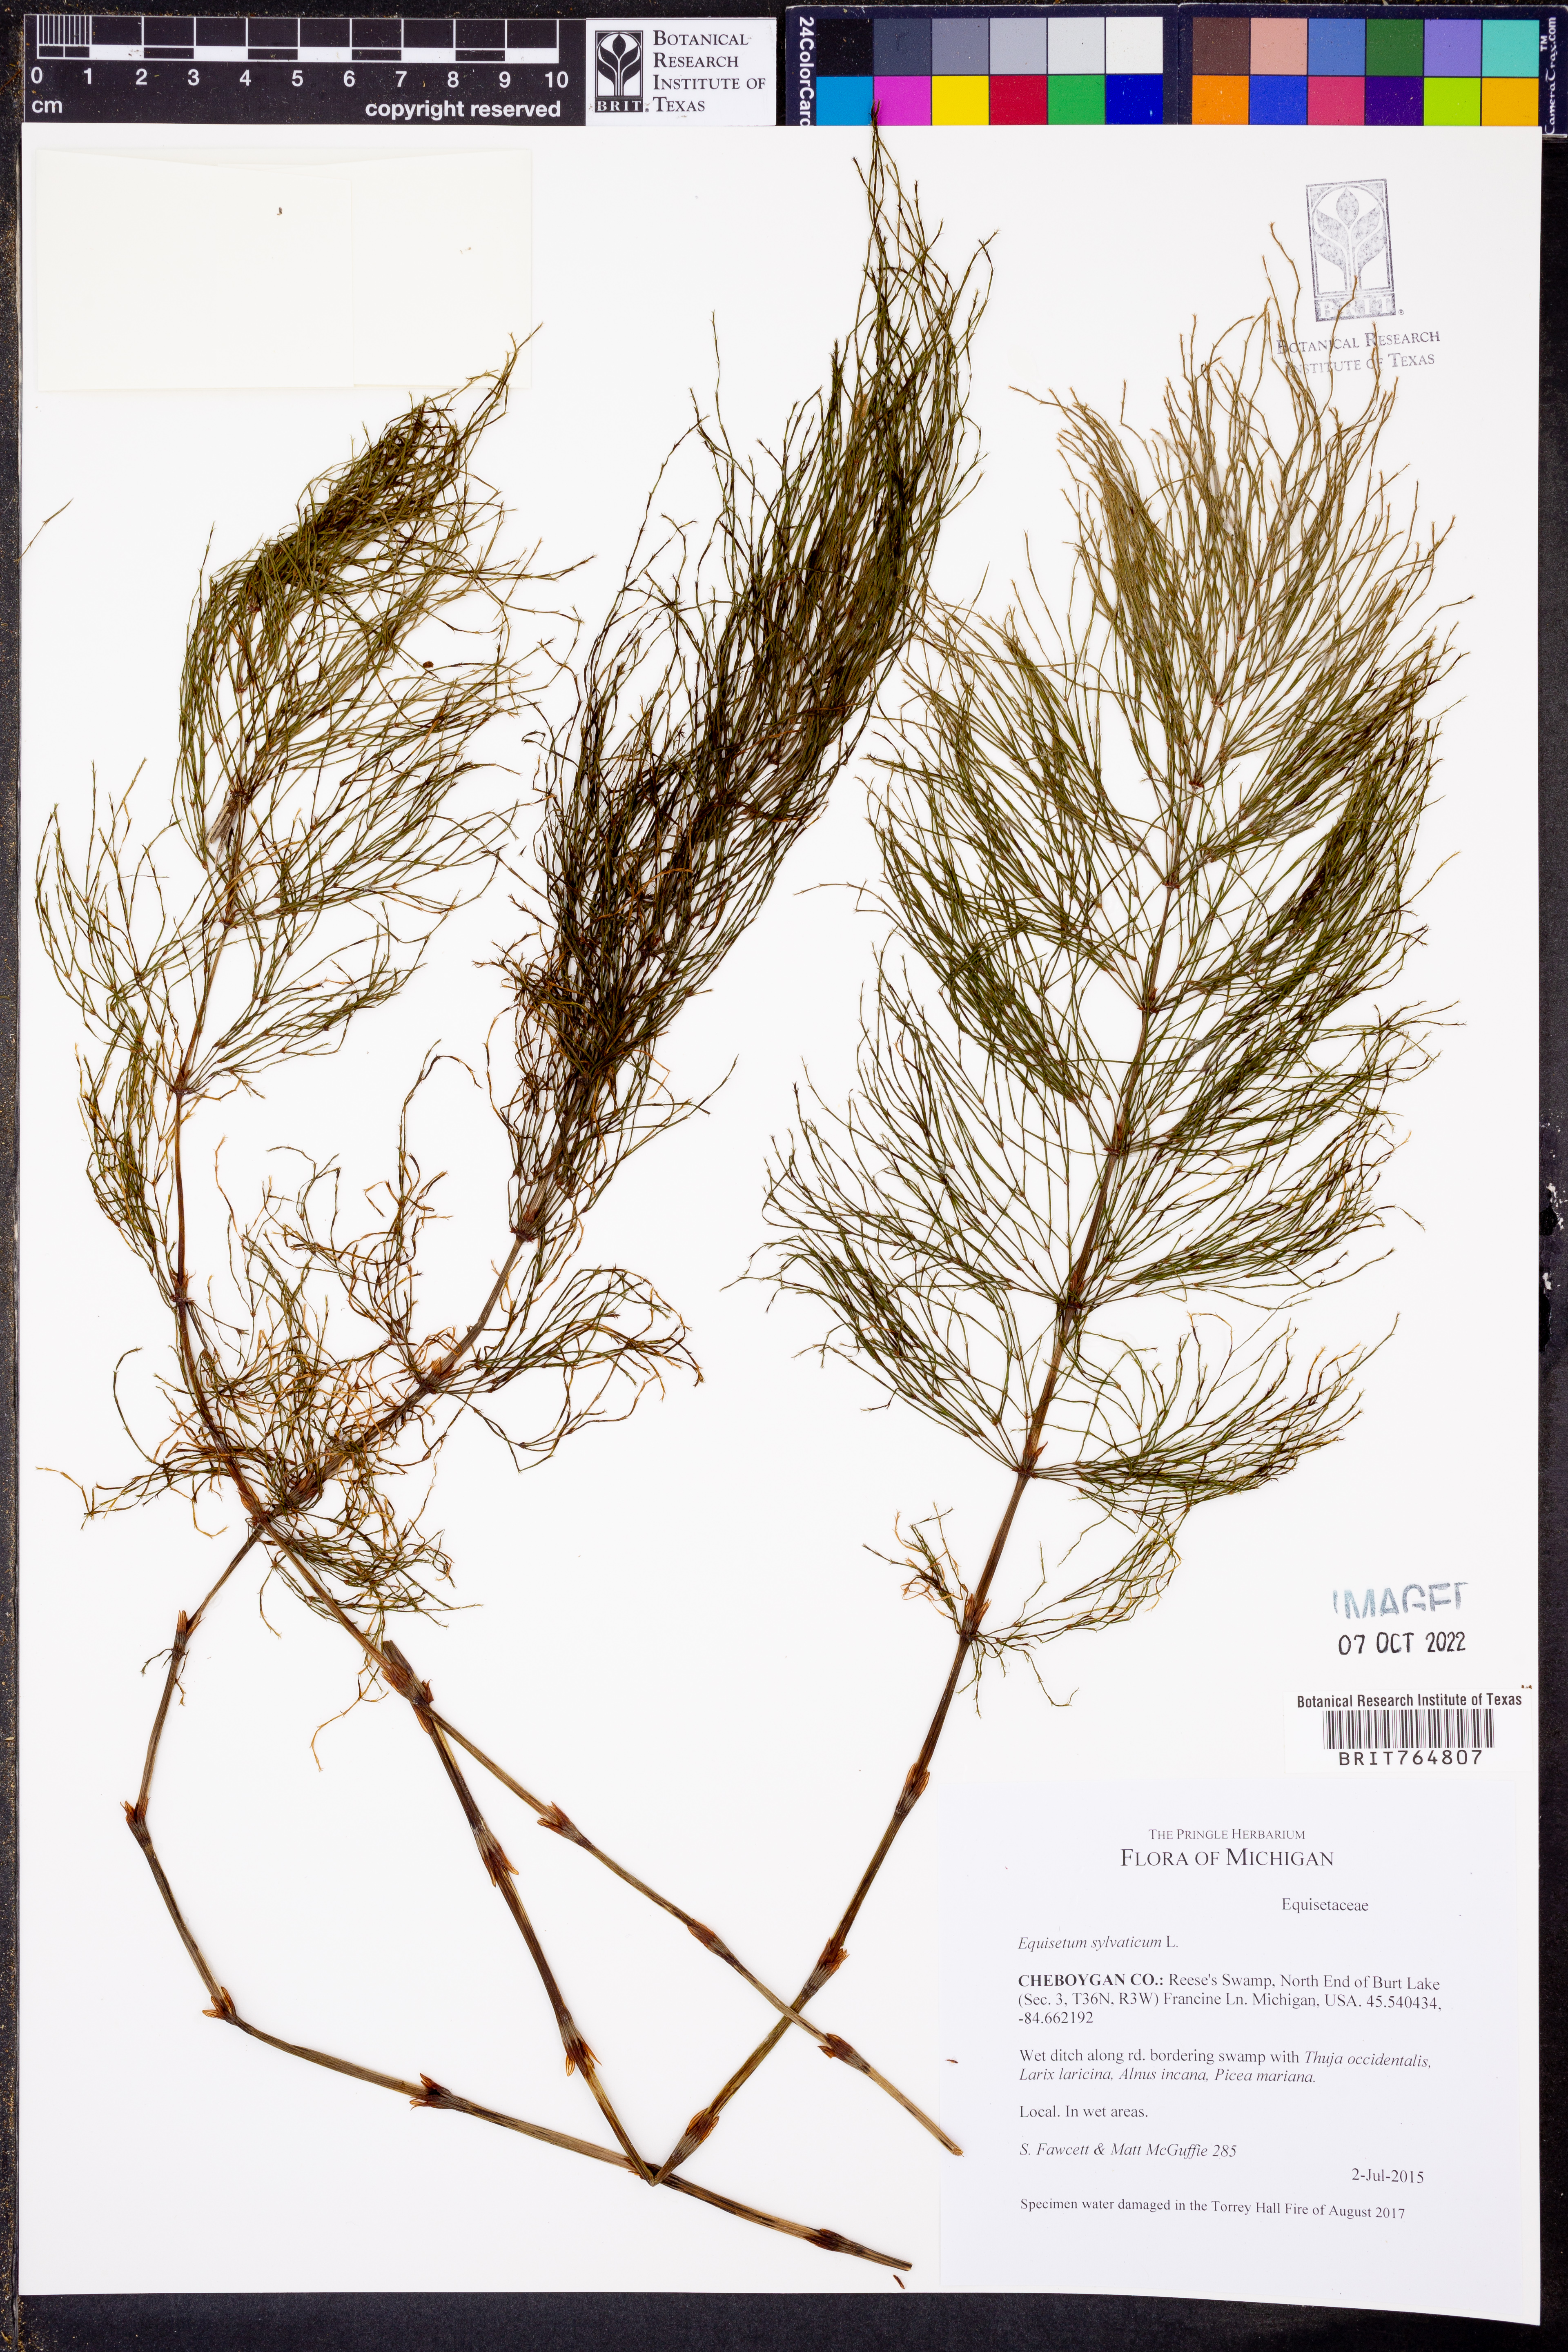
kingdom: Plantae
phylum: Tracheophyta
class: Polypodiopsida
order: Equisetales
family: Equisetaceae
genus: Equisetum
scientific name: Equisetum sylvaticum
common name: Wood horsetail
